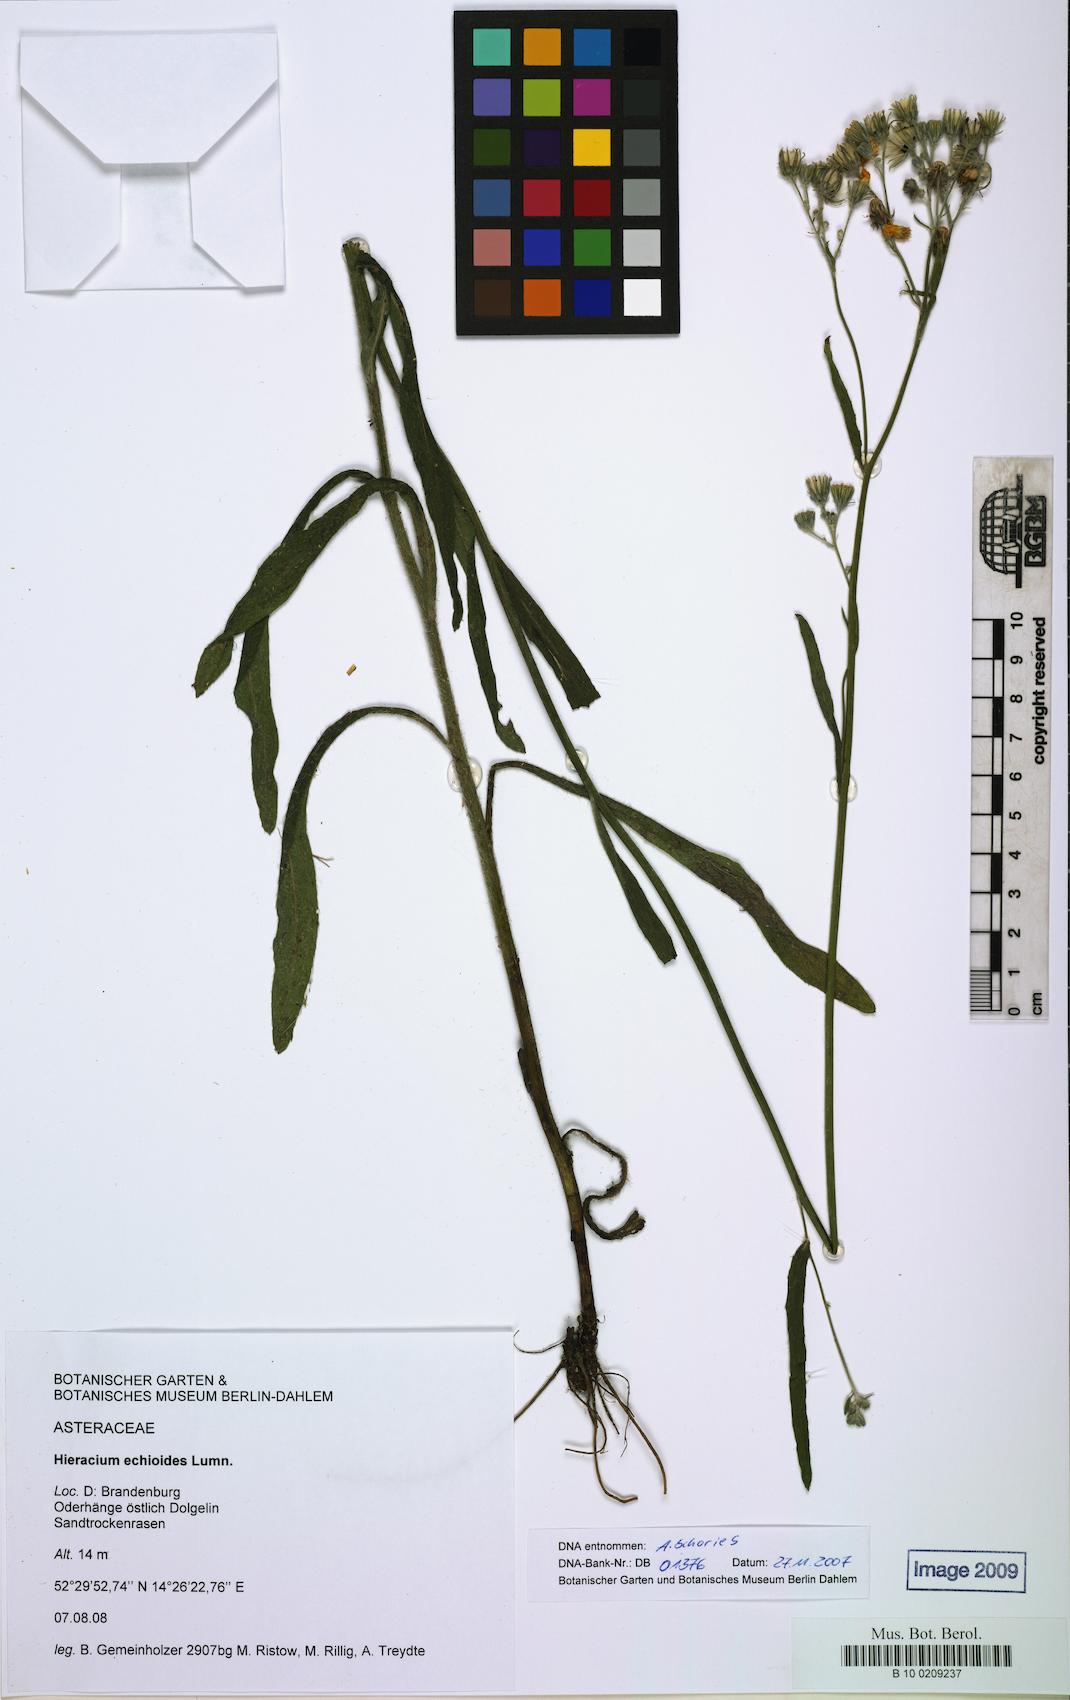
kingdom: Plantae
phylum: Tracheophyta
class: Magnoliopsida
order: Asterales
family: Asteraceae
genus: Pilosella
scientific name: Pilosella echioides
